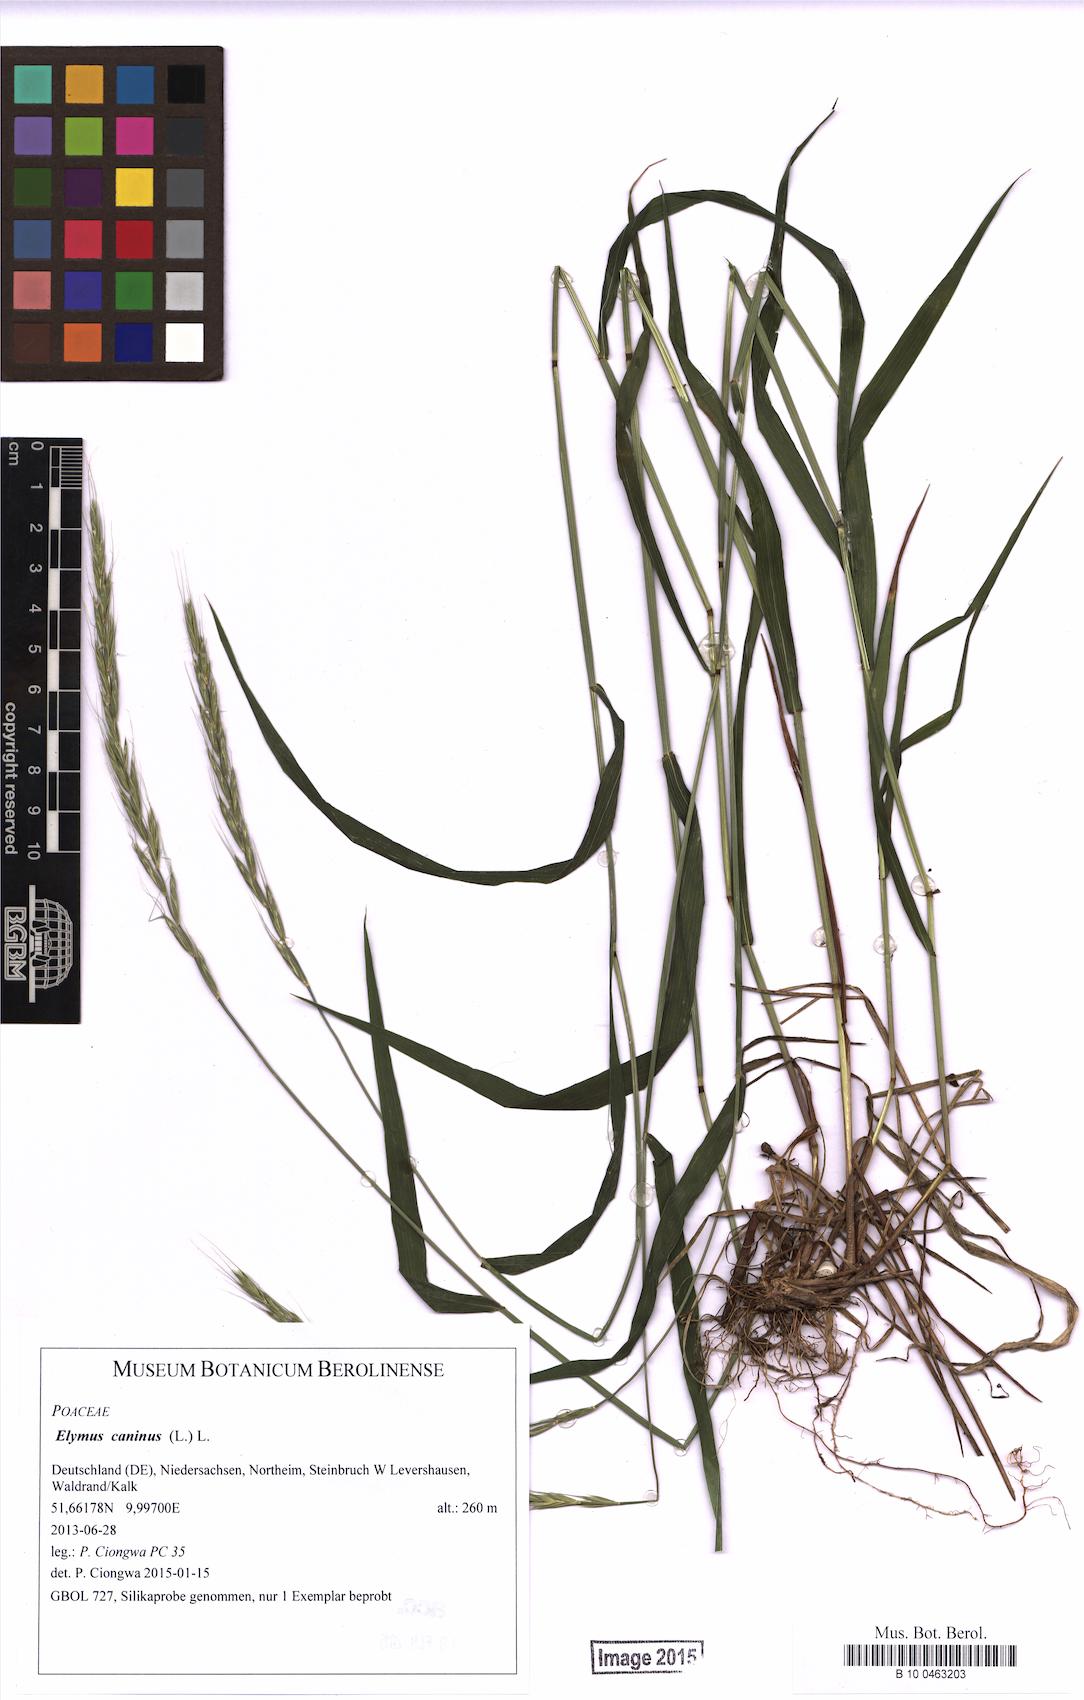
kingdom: Plantae
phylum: Tracheophyta
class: Liliopsida
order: Poales
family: Poaceae
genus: Elymus
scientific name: Elymus caninus
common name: Bearded couch
